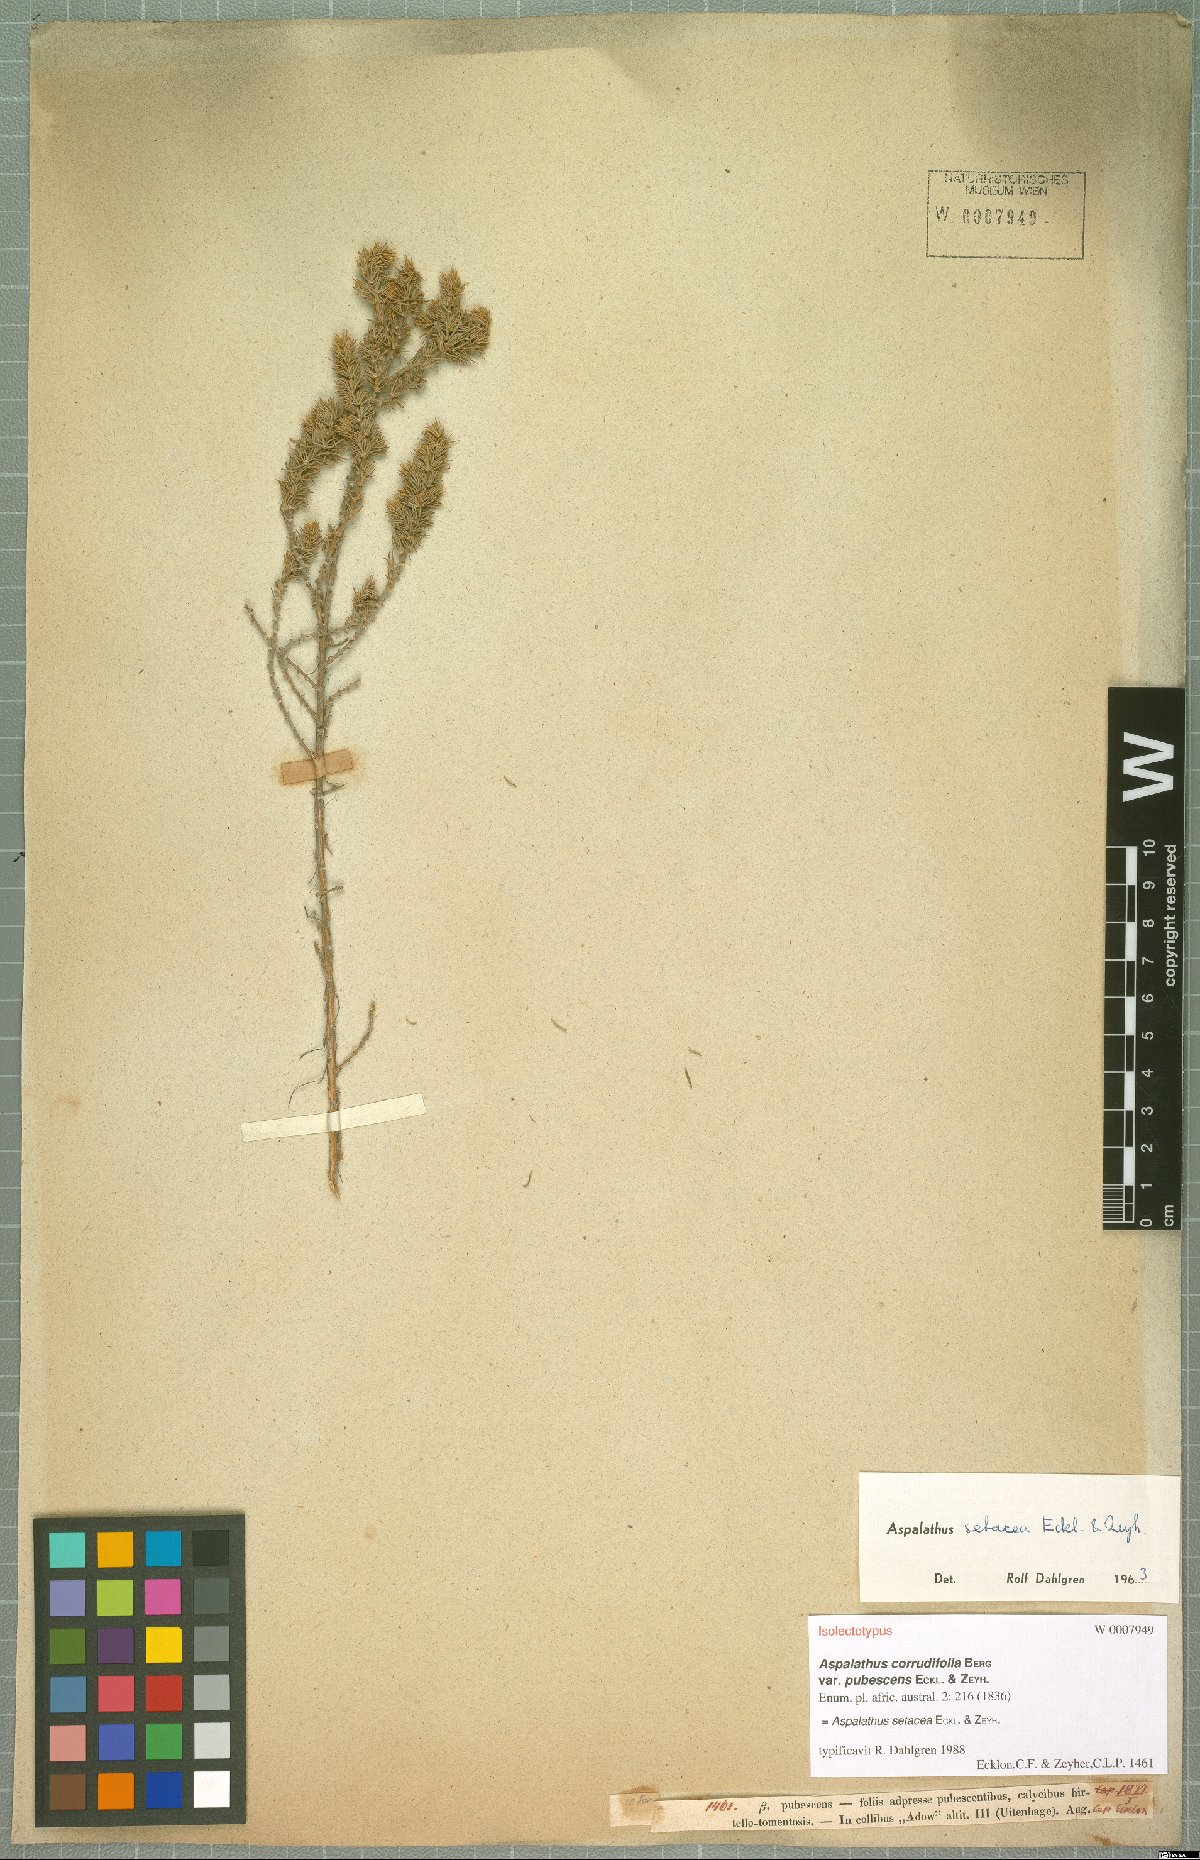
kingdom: Plantae
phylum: Tracheophyta
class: Magnoliopsida
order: Fabales
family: Fabaceae
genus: Aspalathus
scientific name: Aspalathus setacea
